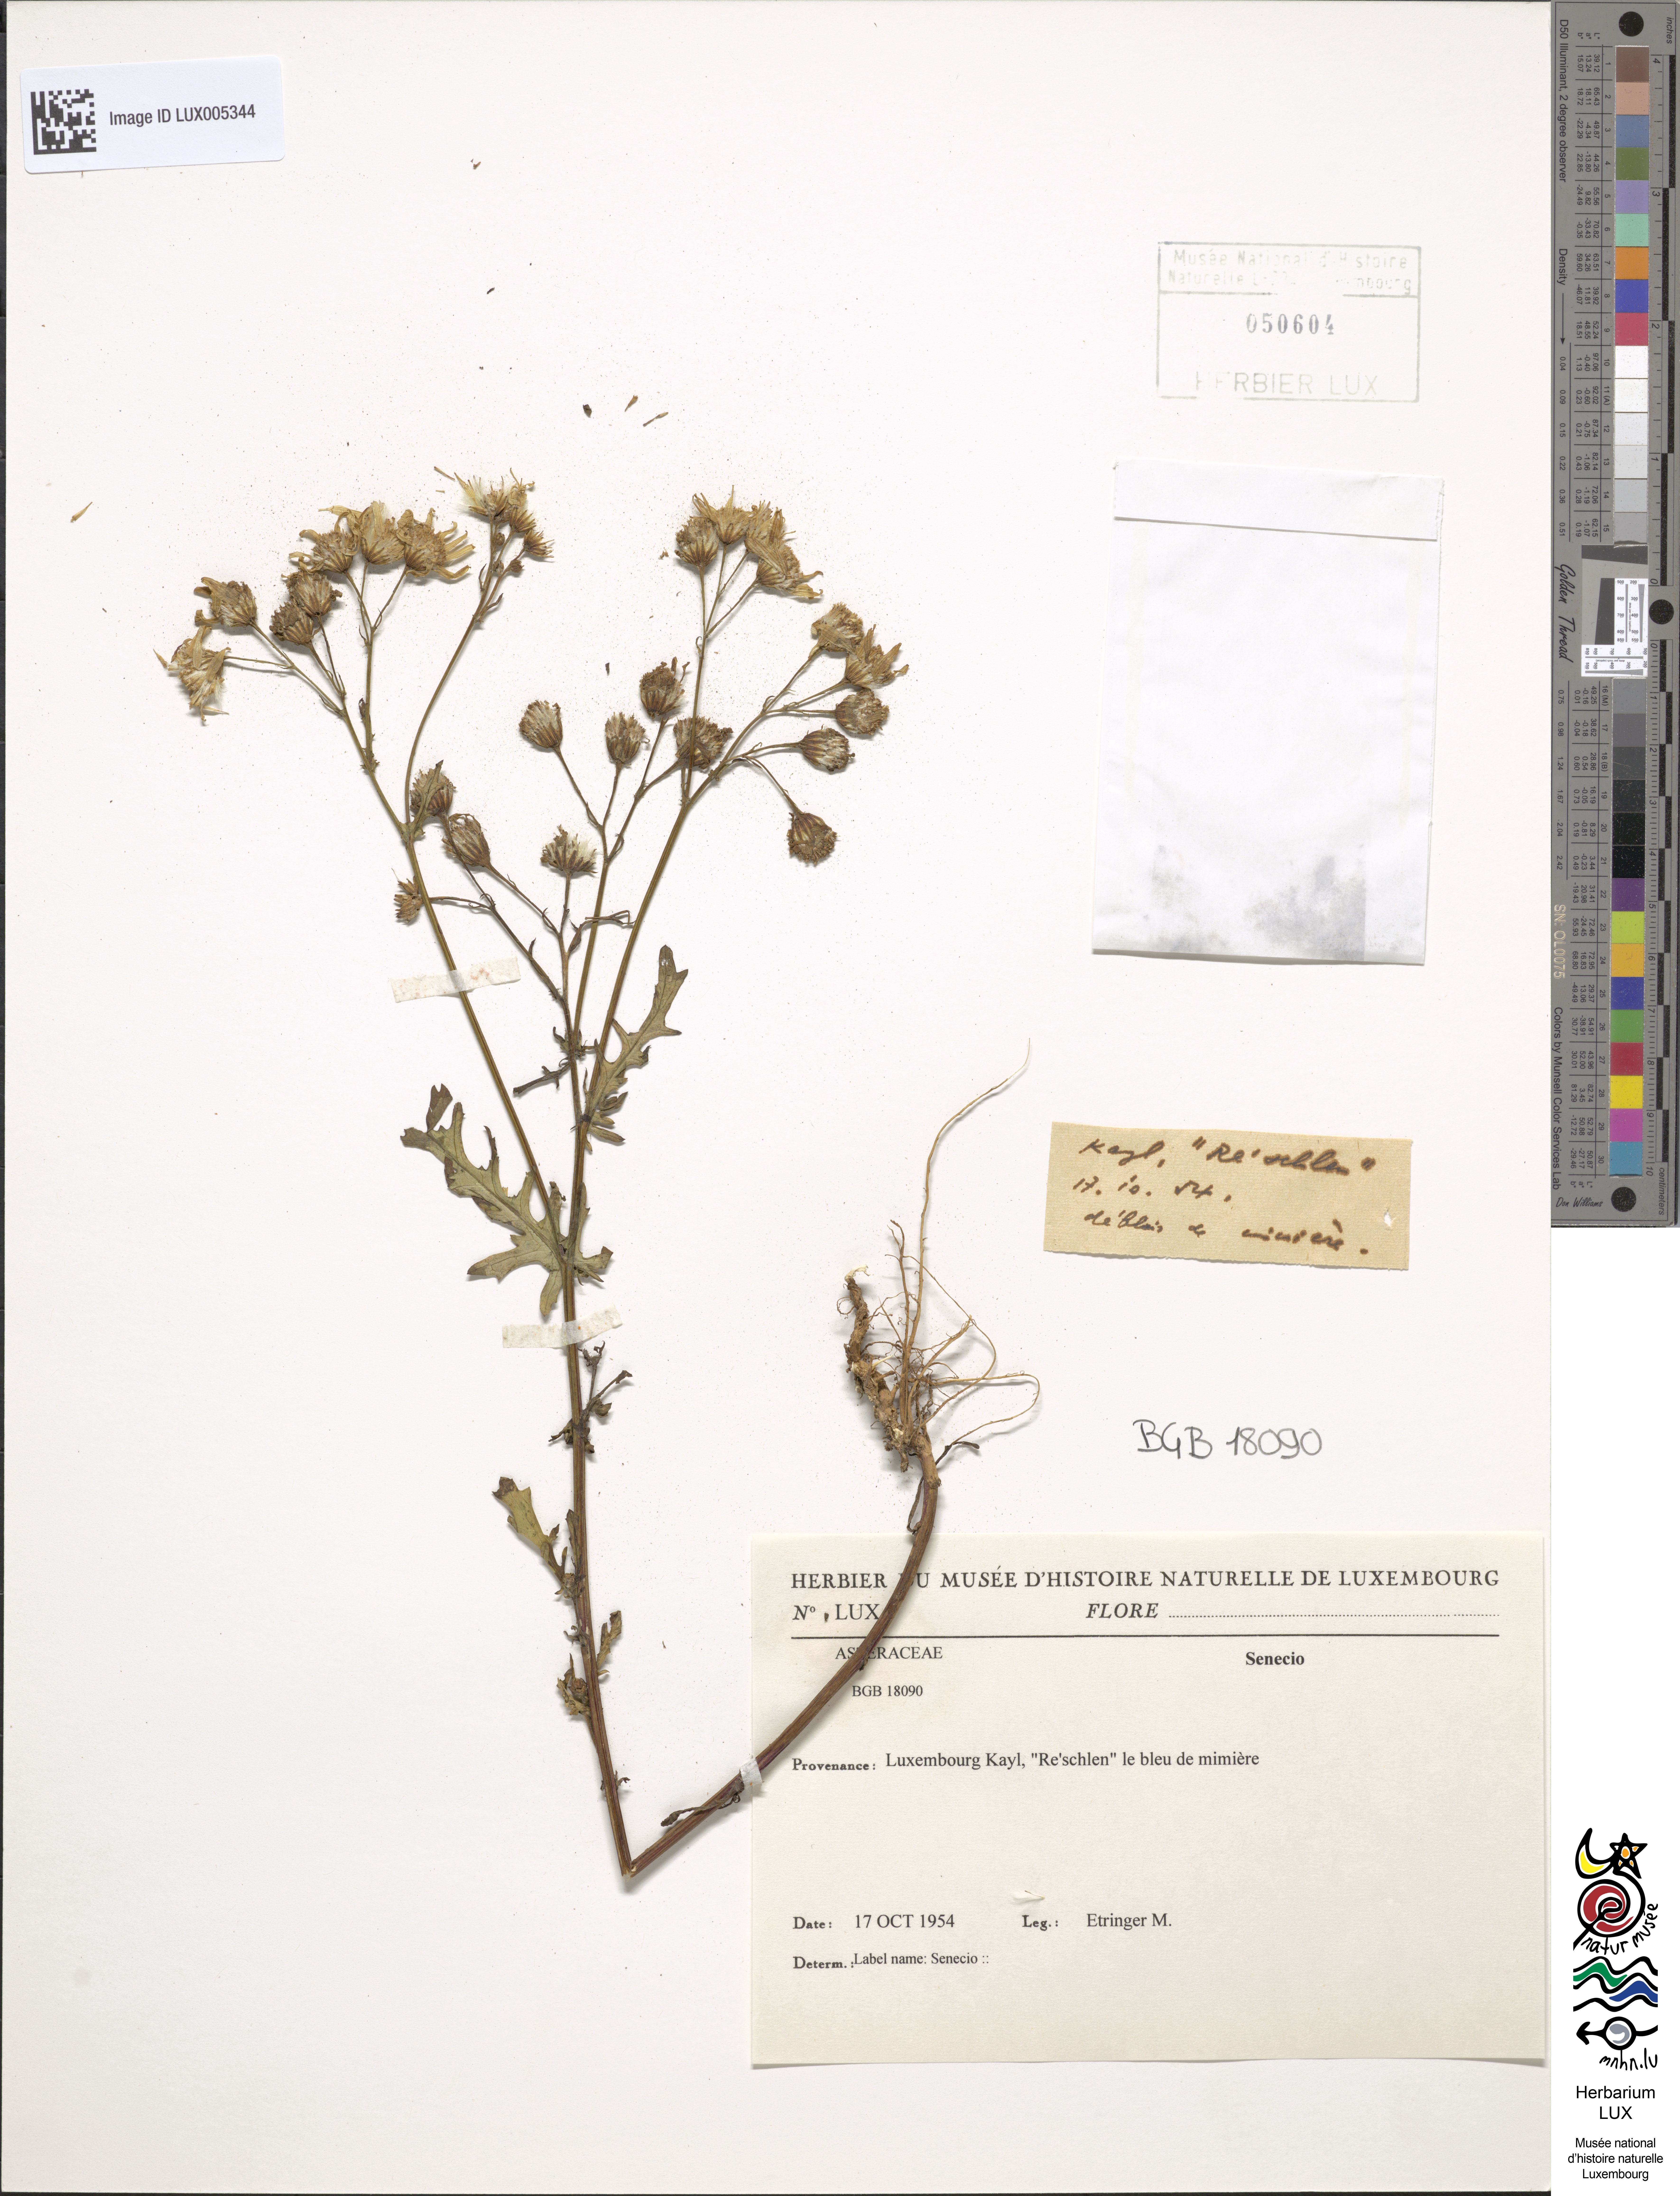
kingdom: Plantae
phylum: Tracheophyta
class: Magnoliopsida
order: Asterales
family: Asteraceae
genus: Senecio
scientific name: Senecio
